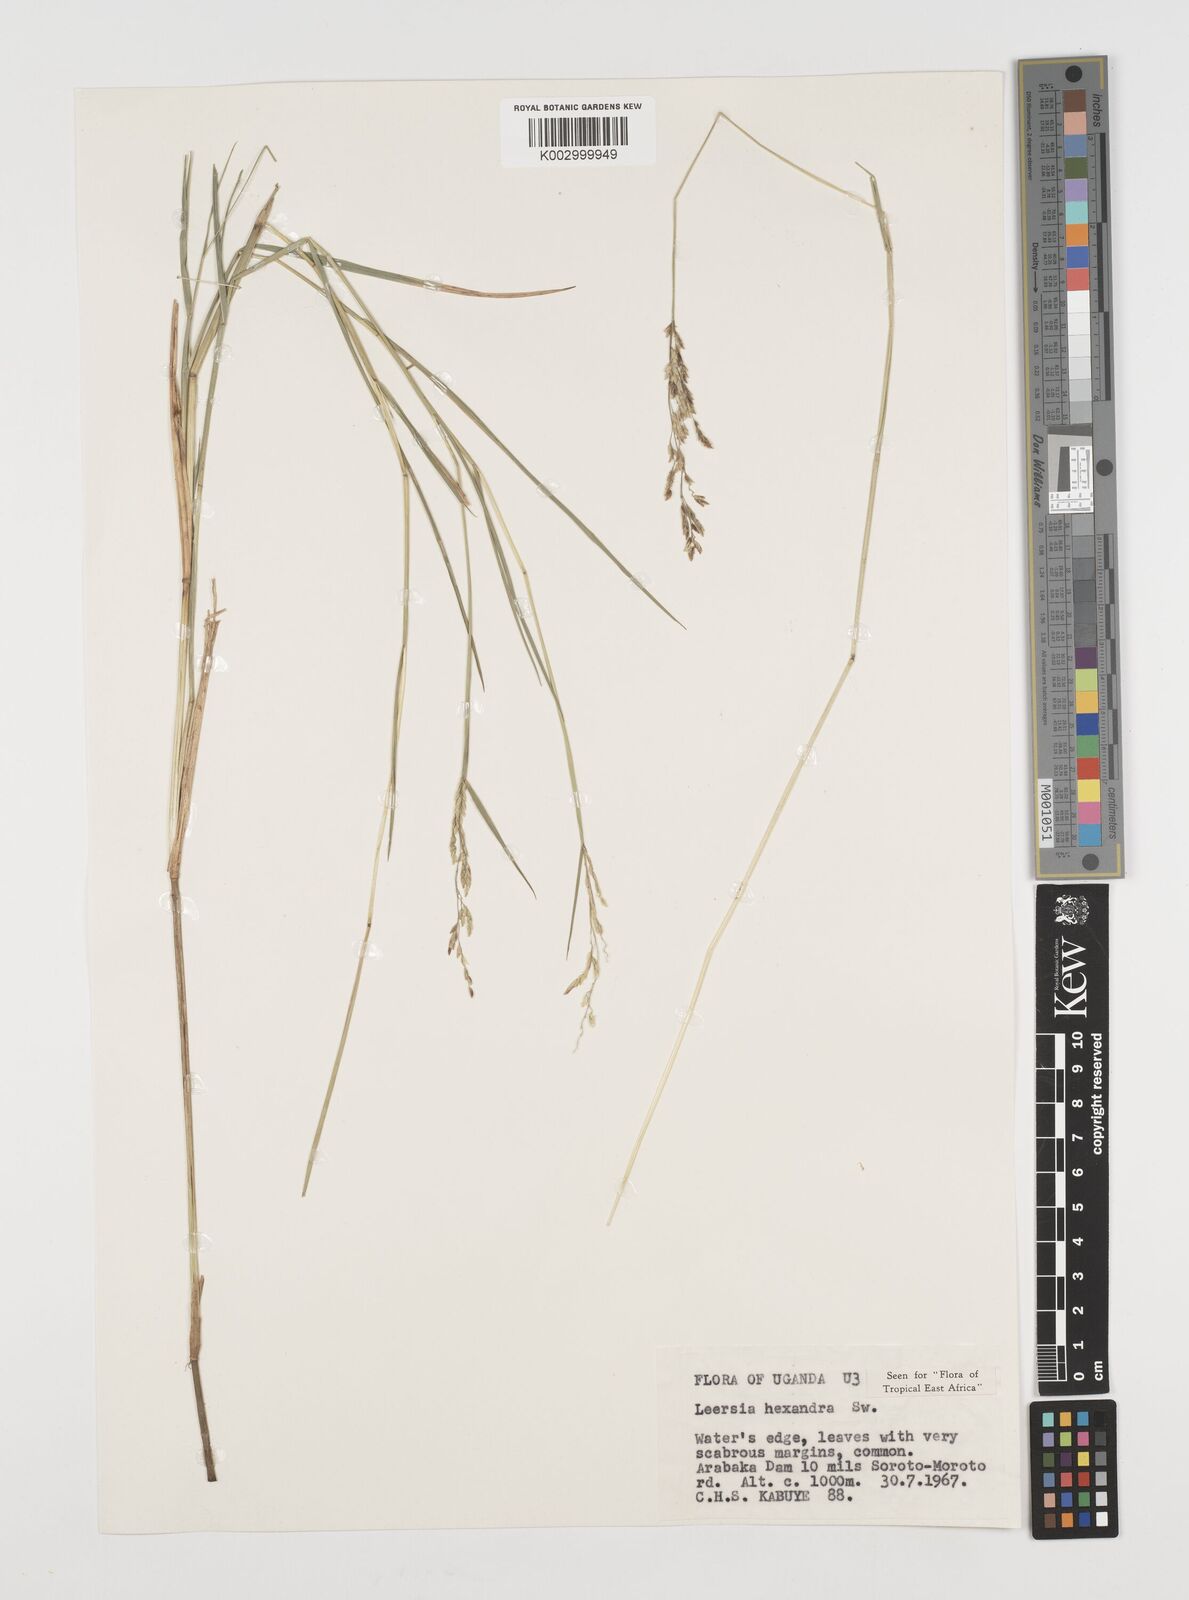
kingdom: Plantae
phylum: Tracheophyta
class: Liliopsida
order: Poales
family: Poaceae
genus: Leersia
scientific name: Leersia hexandra
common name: Southern cut grass
